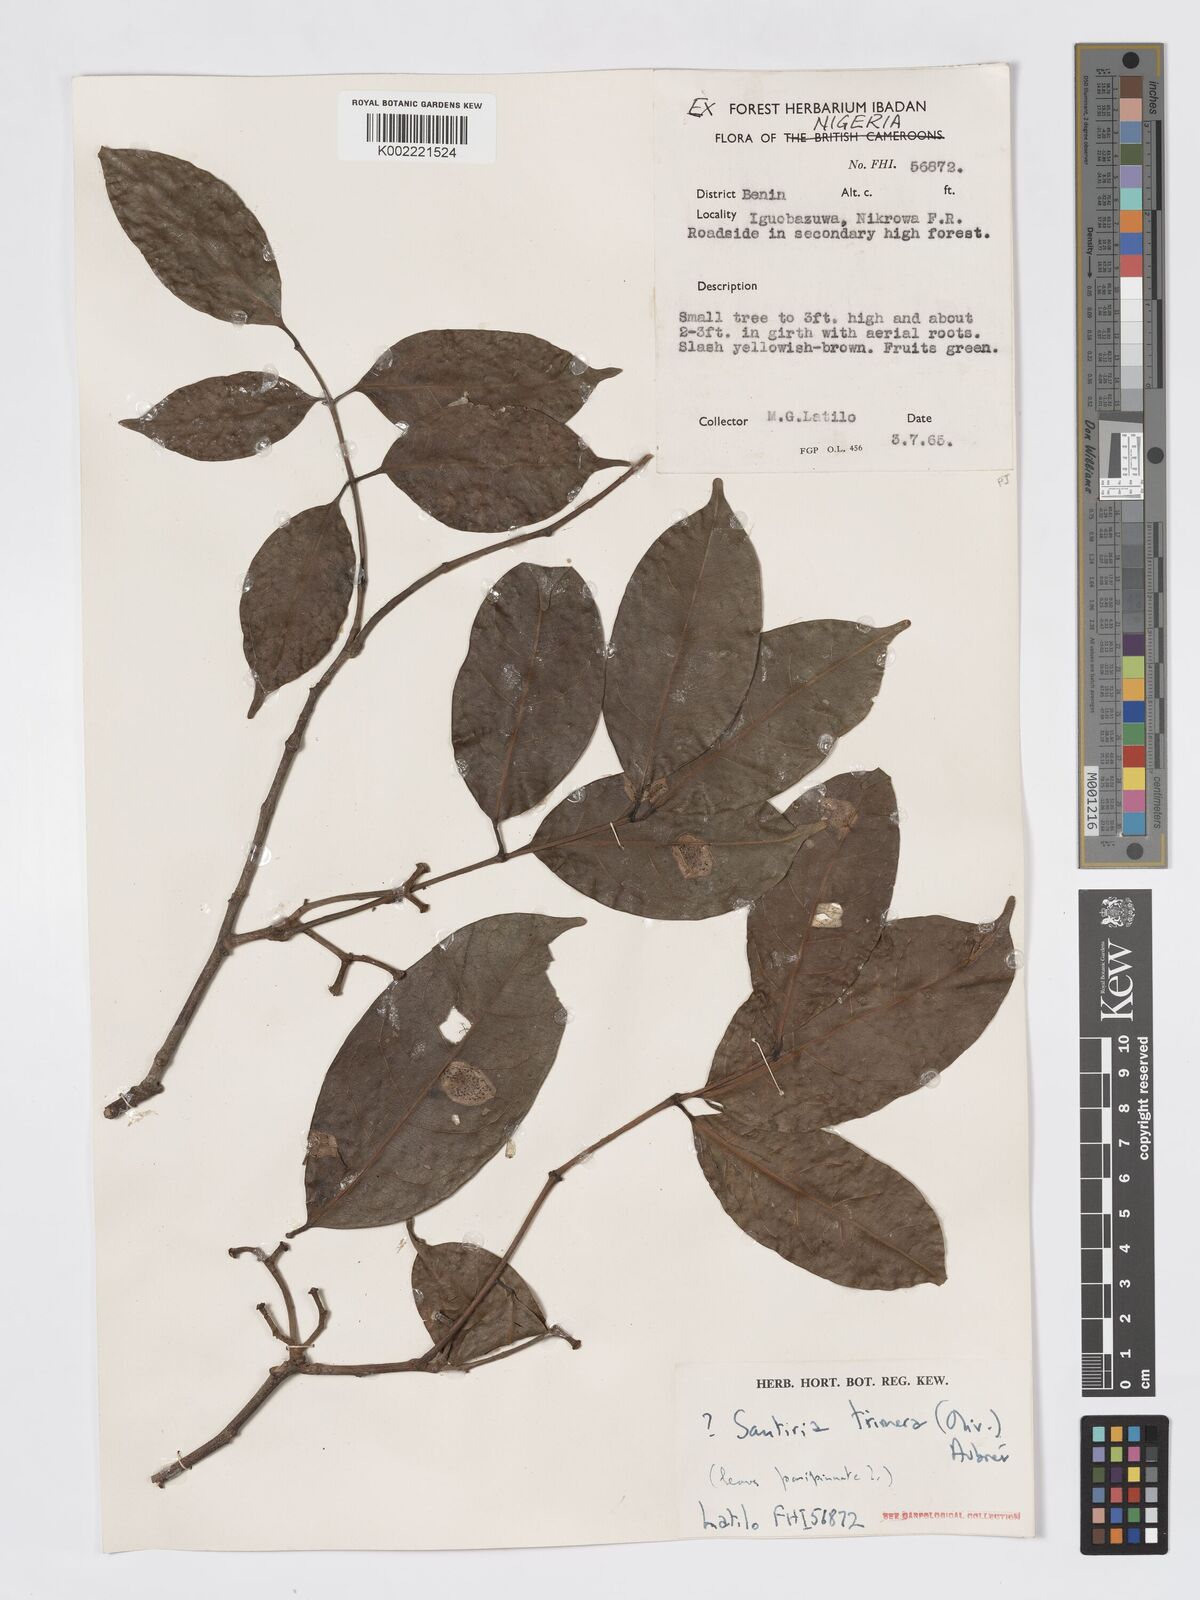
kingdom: Plantae
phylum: Tracheophyta
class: Magnoliopsida
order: Sapindales
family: Burseraceae
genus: Pachylobus
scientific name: Pachylobus trimerus
